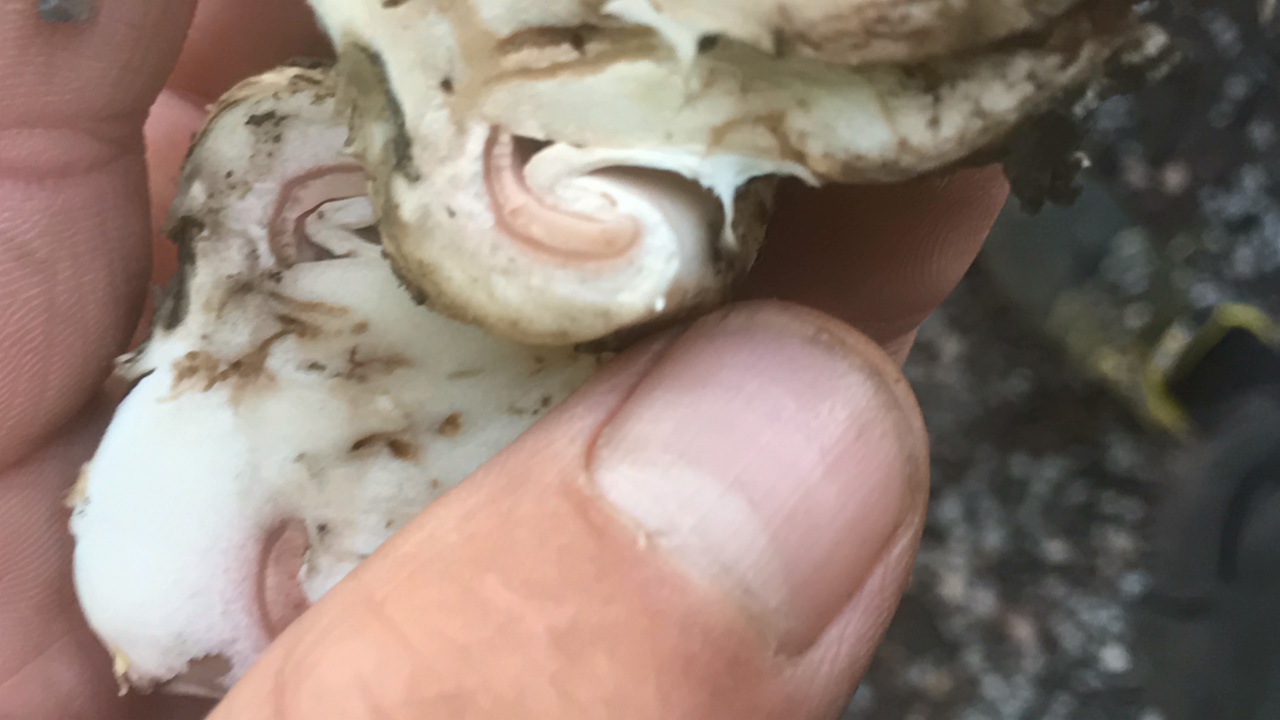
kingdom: Fungi
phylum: Basidiomycota
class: Agaricomycetes
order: Agaricales
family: Agaricaceae
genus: Agaricus
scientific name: Agaricus bitorquis
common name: vej-champignon
